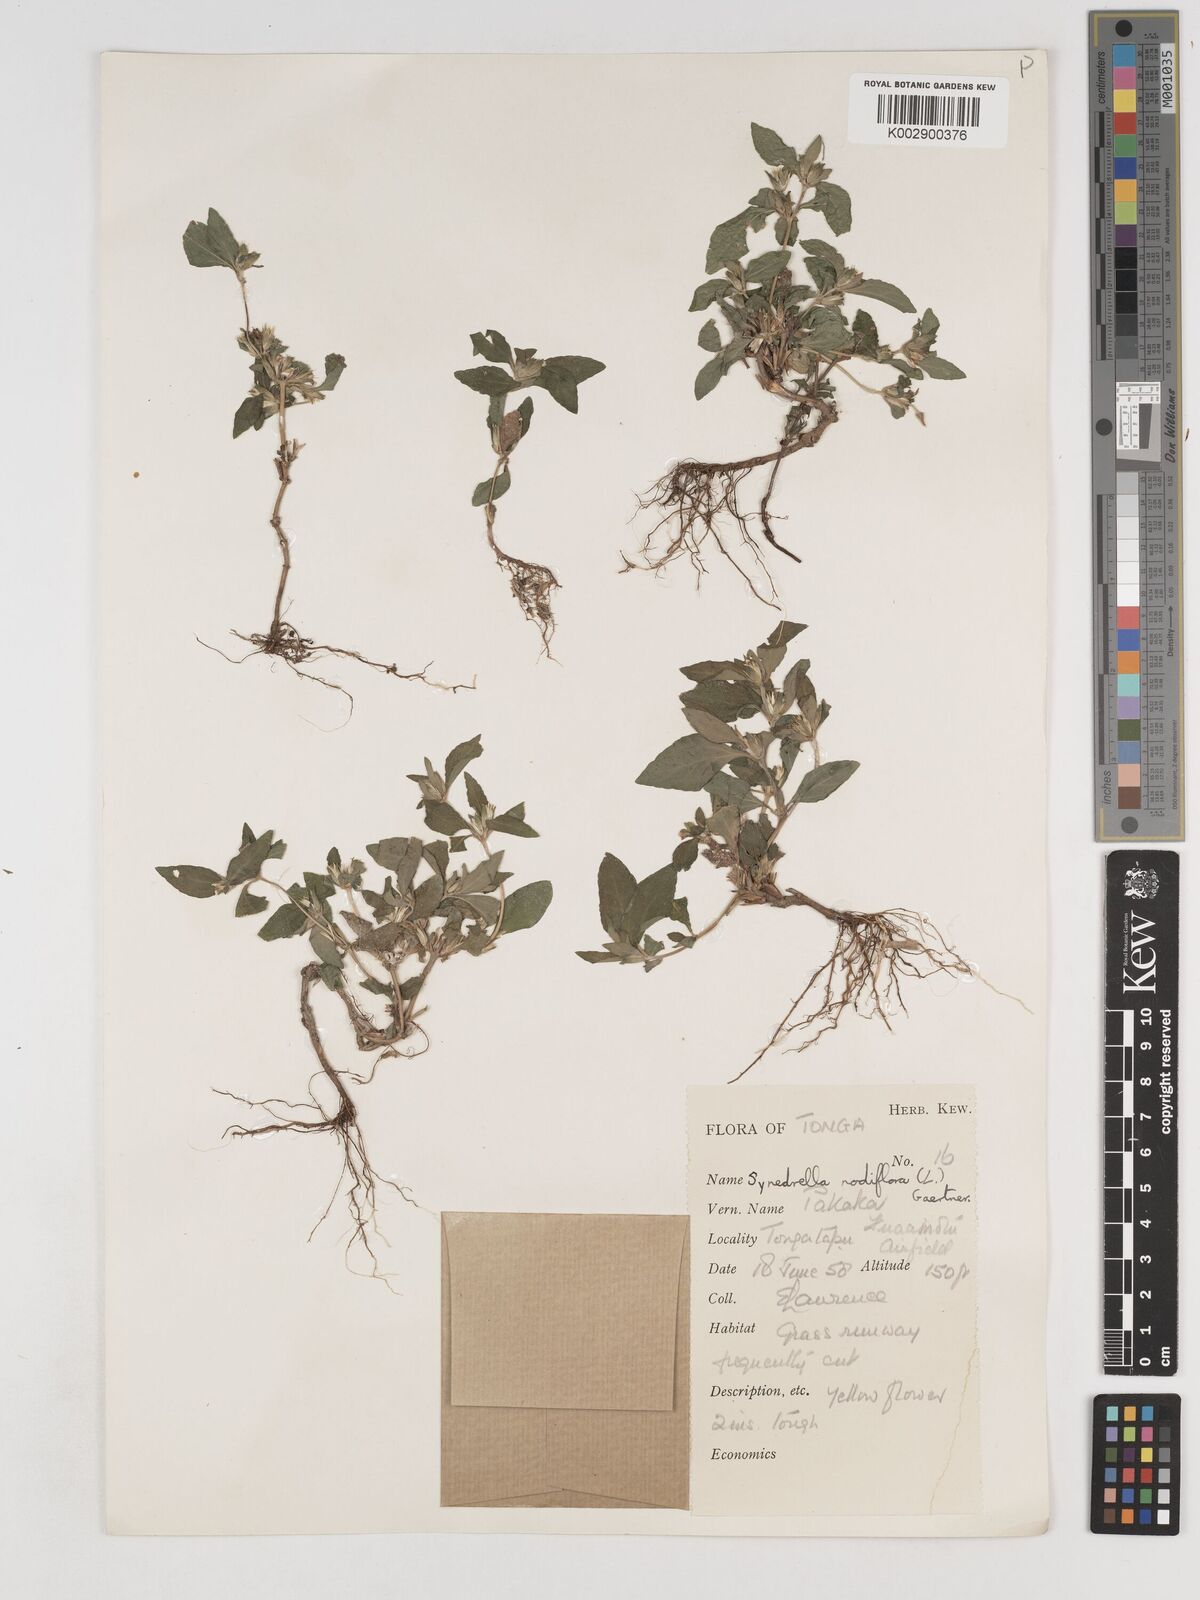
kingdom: Plantae
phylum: Tracheophyta
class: Magnoliopsida
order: Asterales
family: Asteraceae
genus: Synedrella
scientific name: Synedrella nodiflora
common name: Nodeweed
